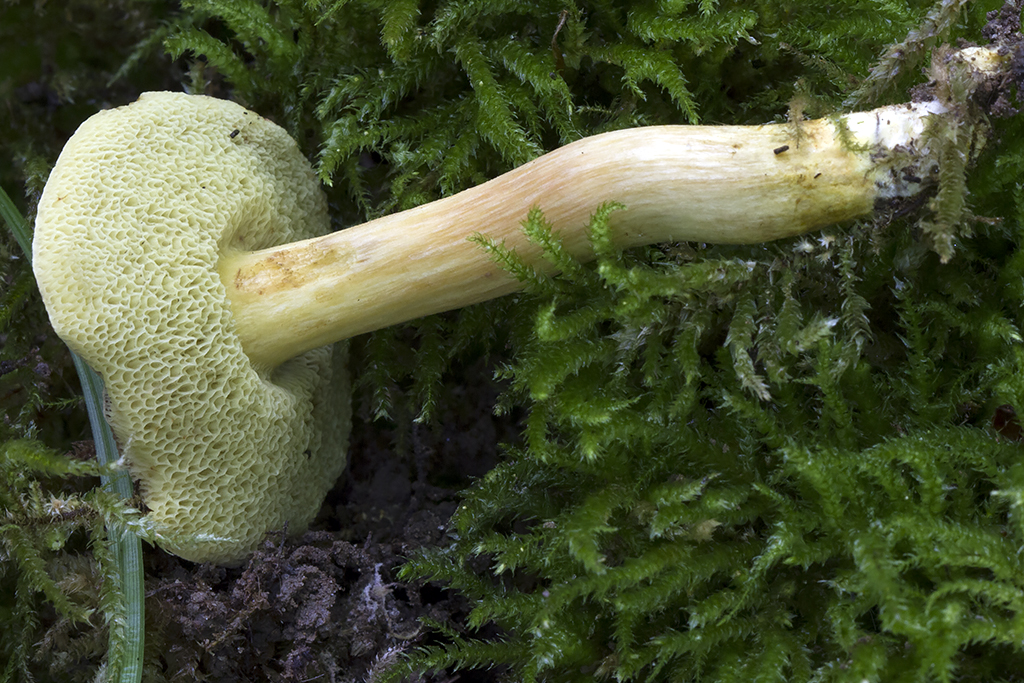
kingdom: Fungi
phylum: Basidiomycota
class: Agaricomycetes
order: Boletales
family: Boletaceae
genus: Hortiboletus
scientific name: Hortiboletus rubellus
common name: blodrød rørhat
